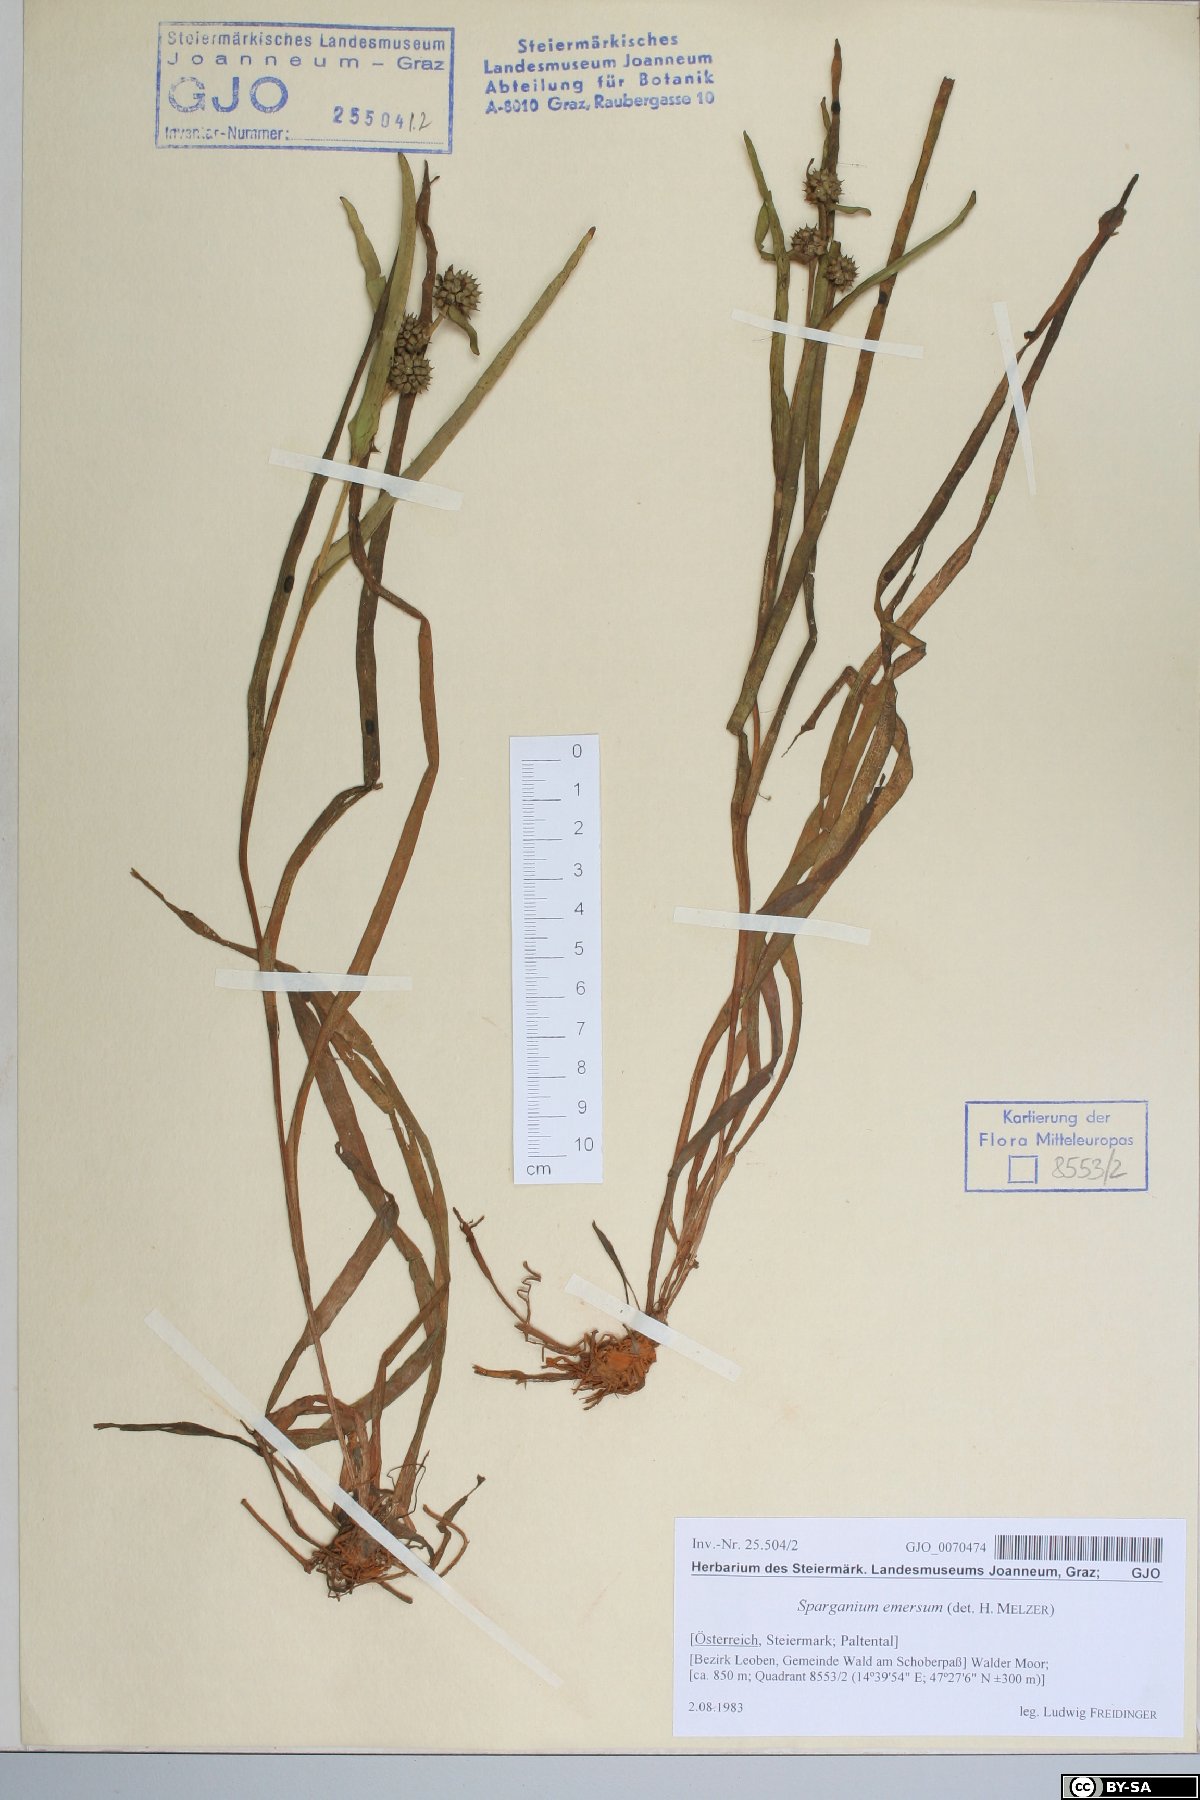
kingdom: Plantae
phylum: Tracheophyta
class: Liliopsida
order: Poales
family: Typhaceae
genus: Sparganium
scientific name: Sparganium emersum
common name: Unbranched bur-reed
